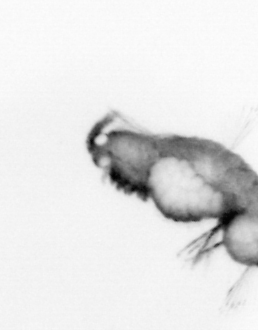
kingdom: Animalia
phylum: Annelida
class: Polychaeta
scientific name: Polychaeta
